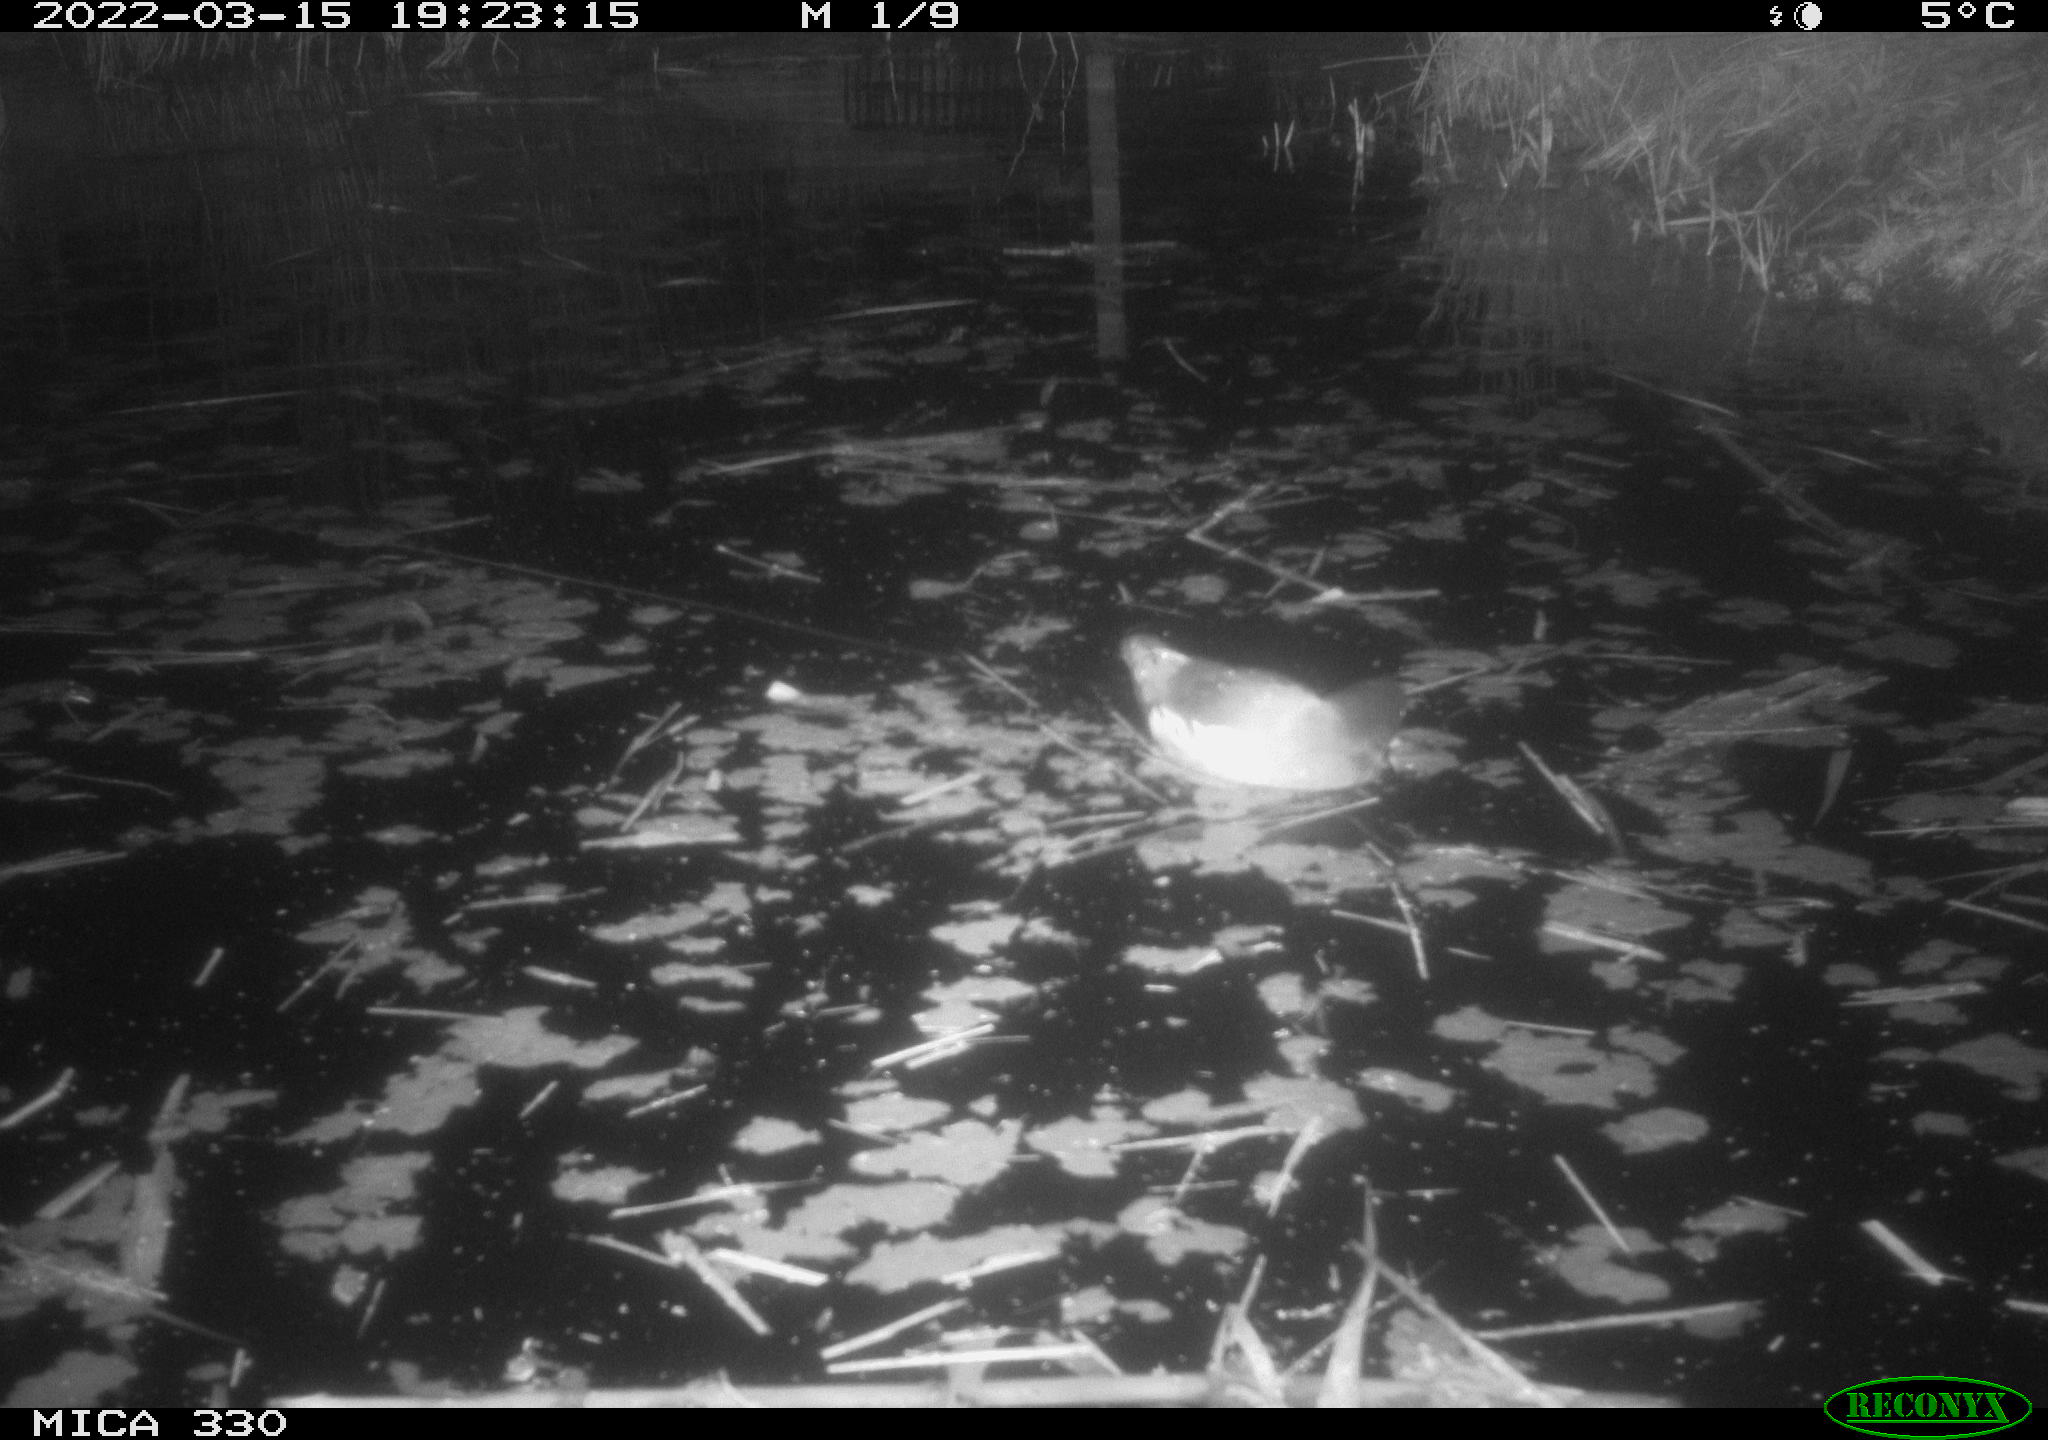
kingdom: Animalia
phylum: Chordata
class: Aves
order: Gruiformes
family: Rallidae
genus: Gallinula
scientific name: Gallinula chloropus
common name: Common moorhen
